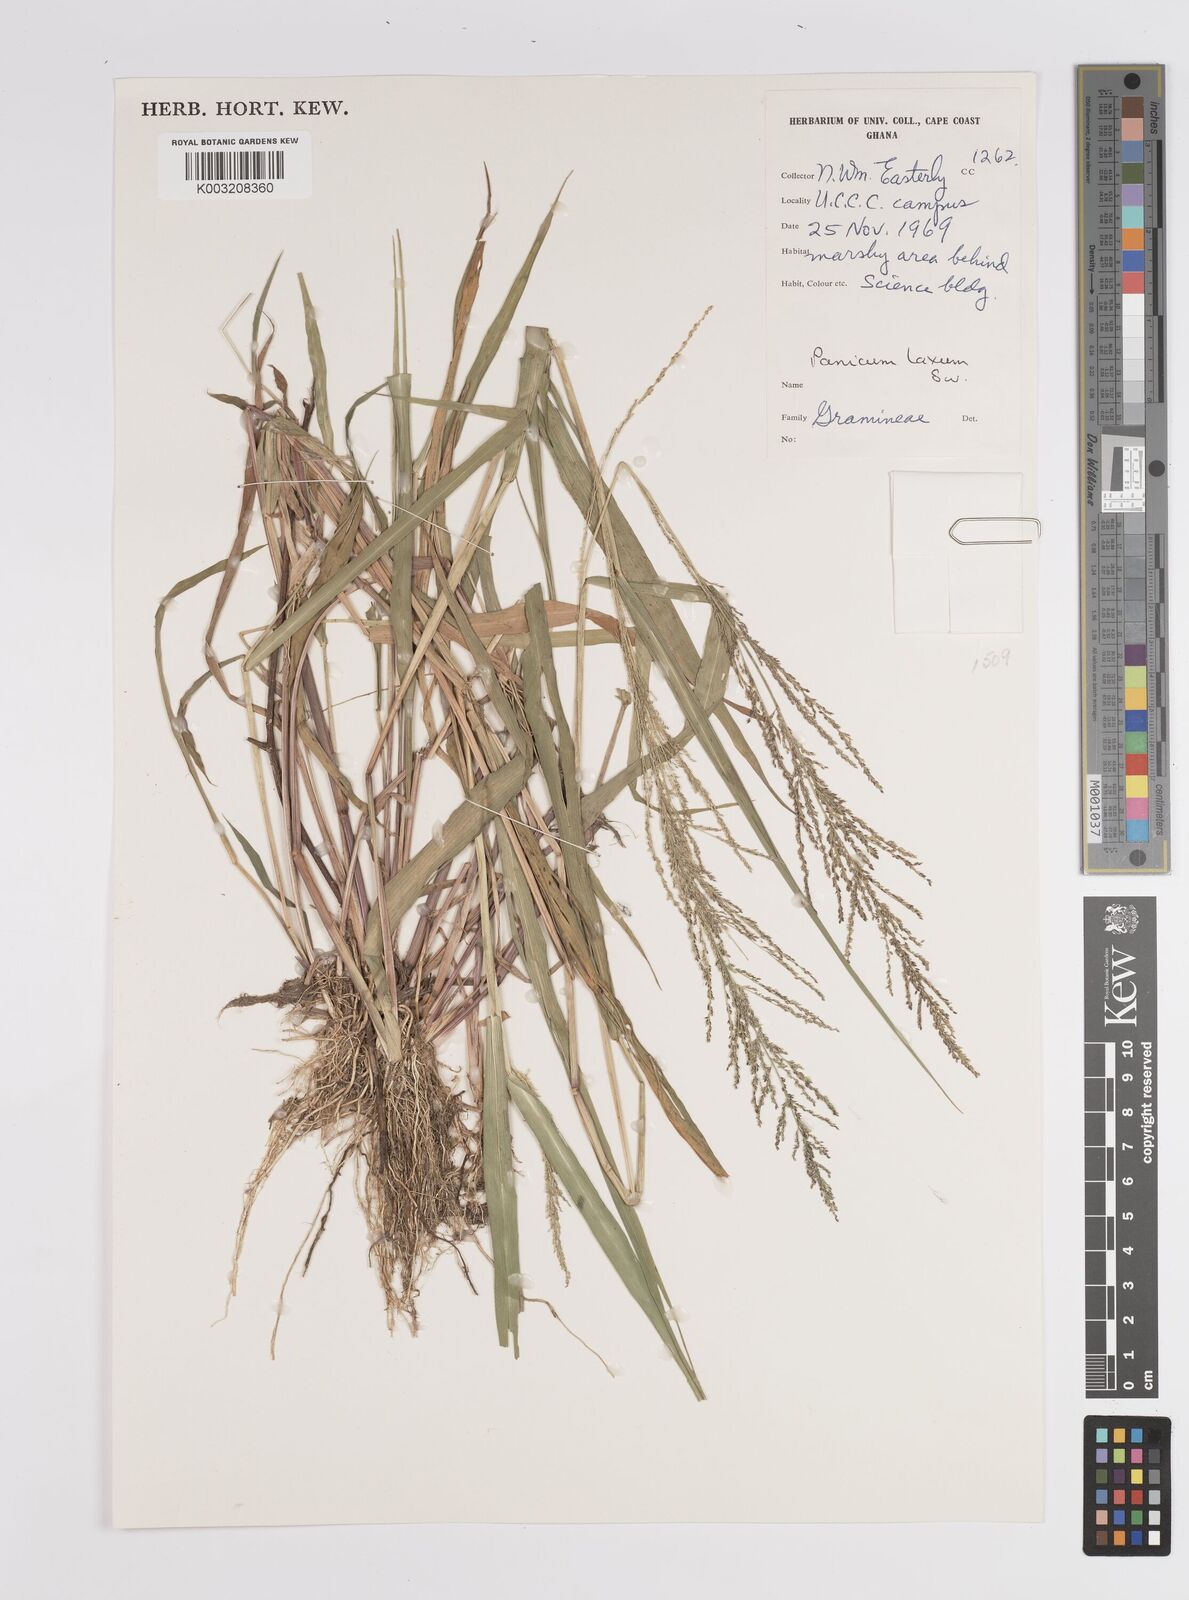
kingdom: Plantae
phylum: Tracheophyta
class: Liliopsida
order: Poales
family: Poaceae
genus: Steinchisma
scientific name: Steinchisma laxum
